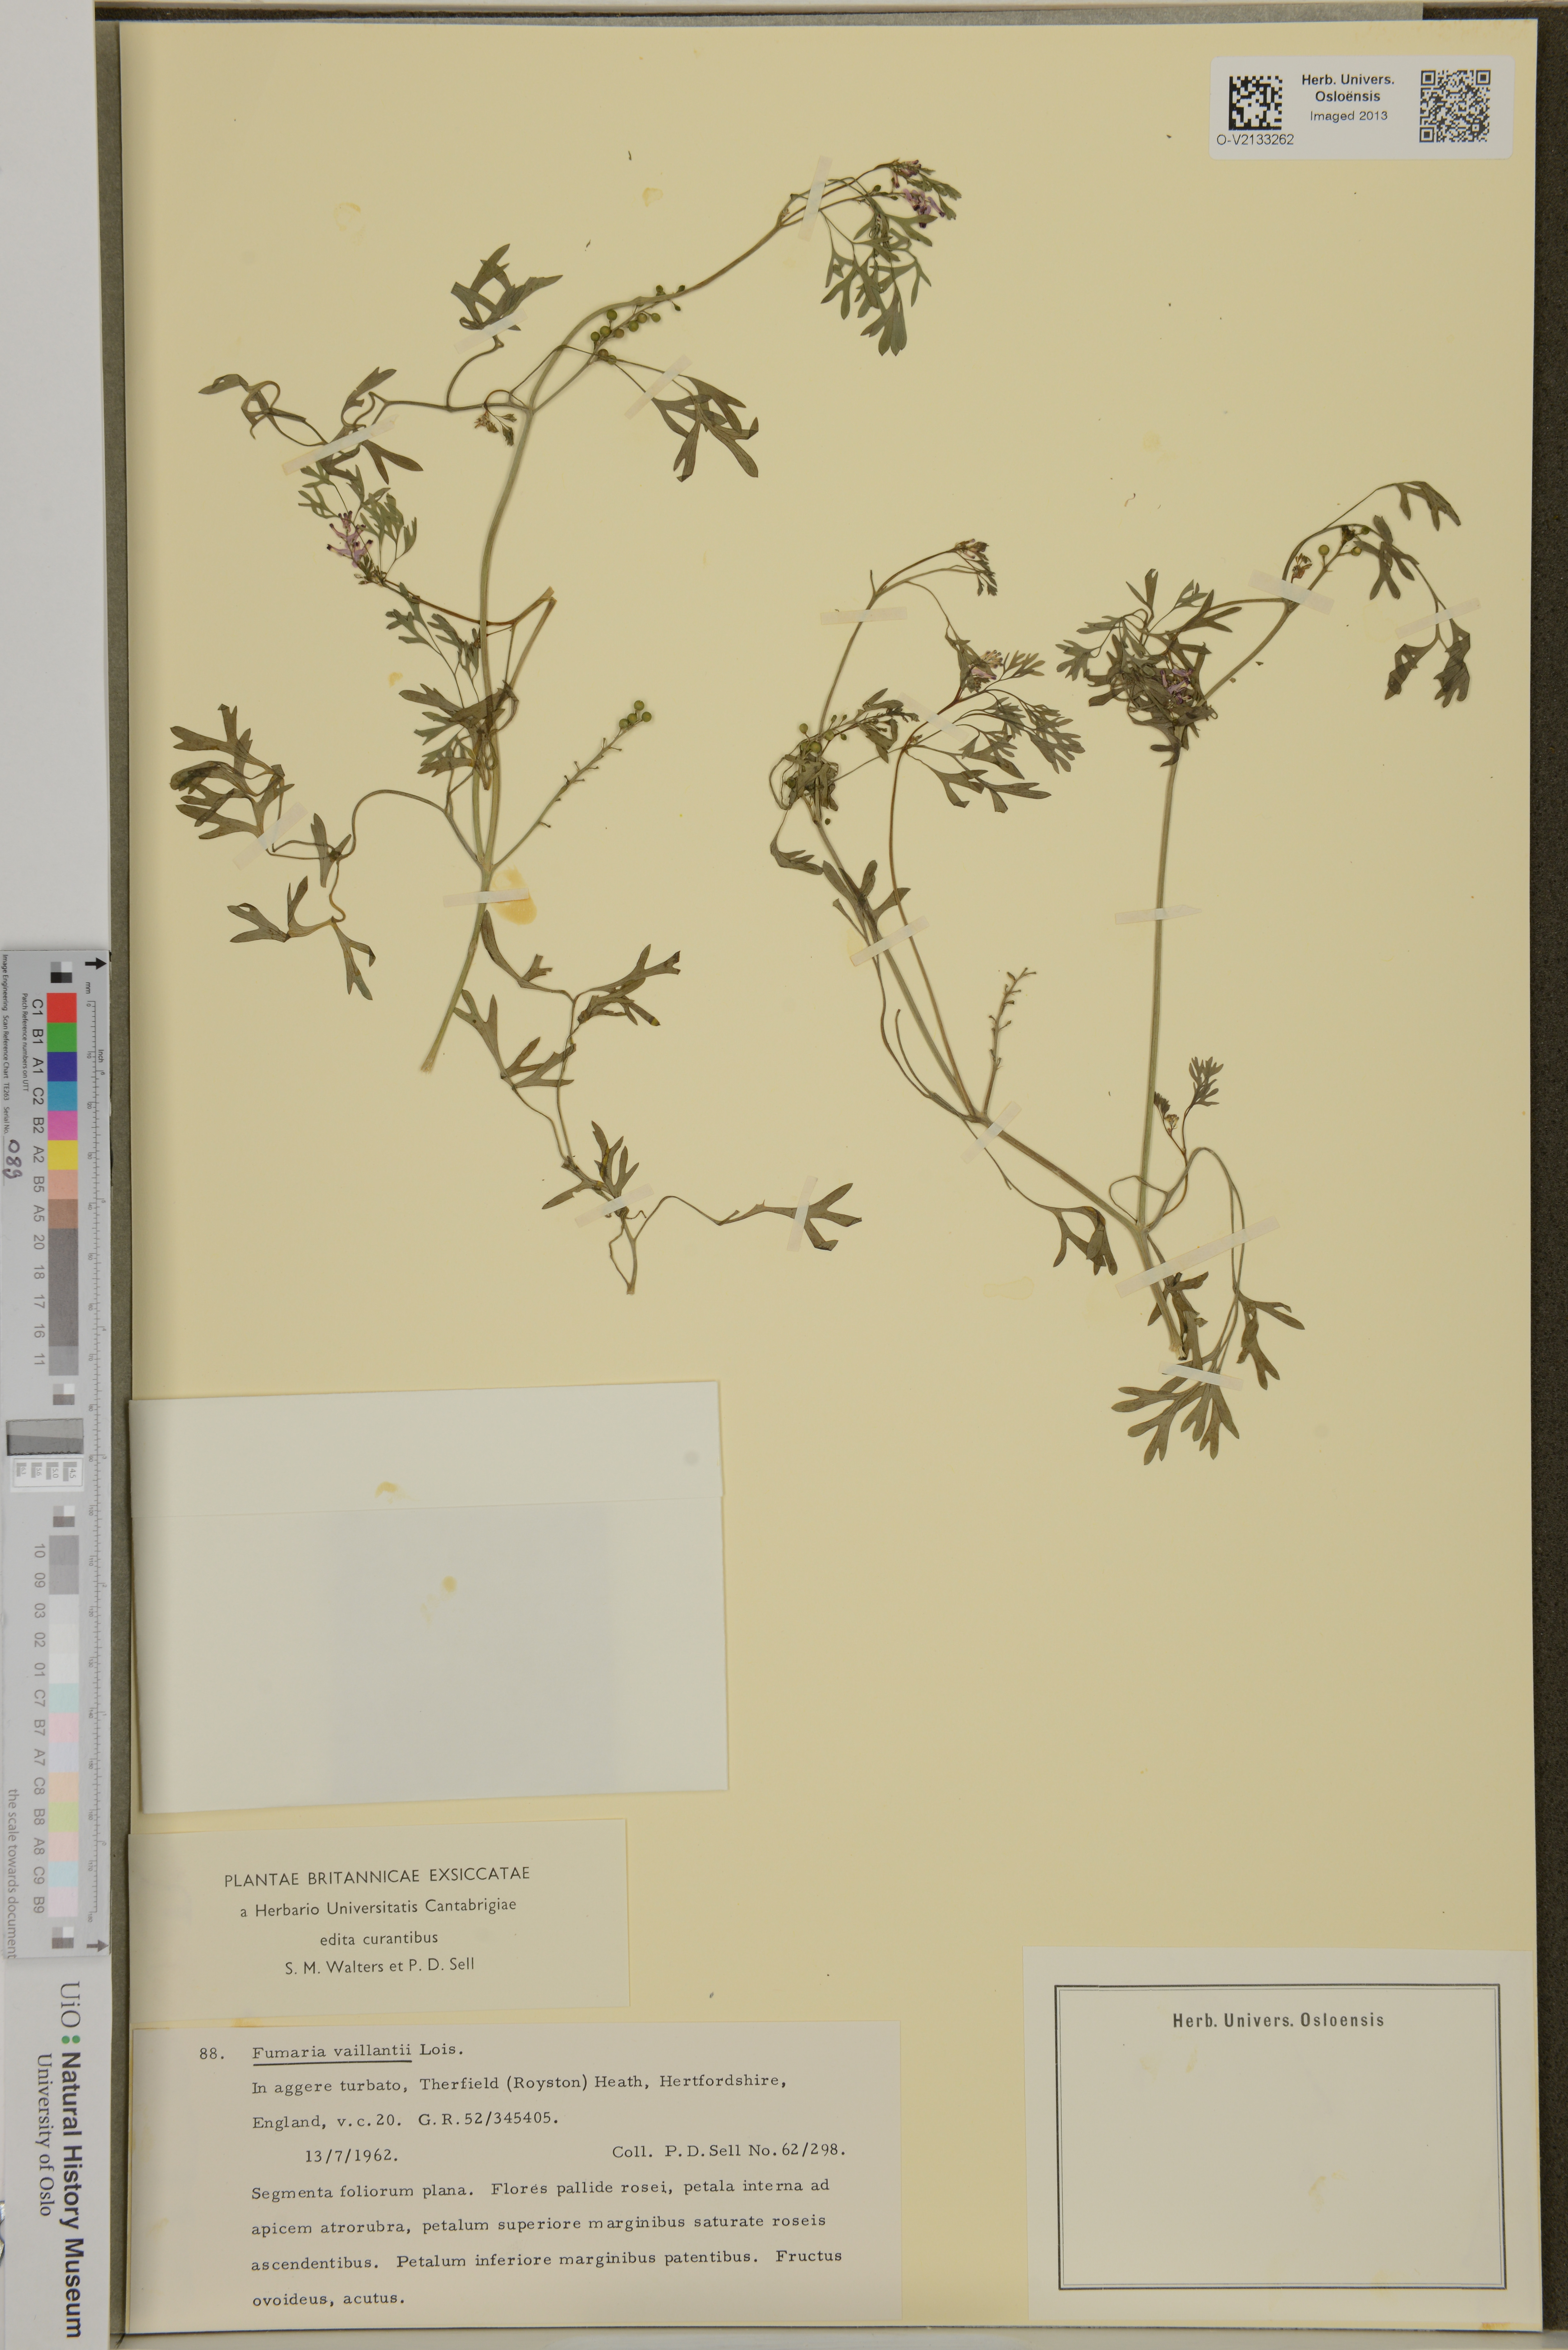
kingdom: Plantae
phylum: Tracheophyta
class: Magnoliopsida
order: Ranunculales
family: Papaveraceae
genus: Fumaria
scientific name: Fumaria vaillantii
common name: Few-flowered fumitory
